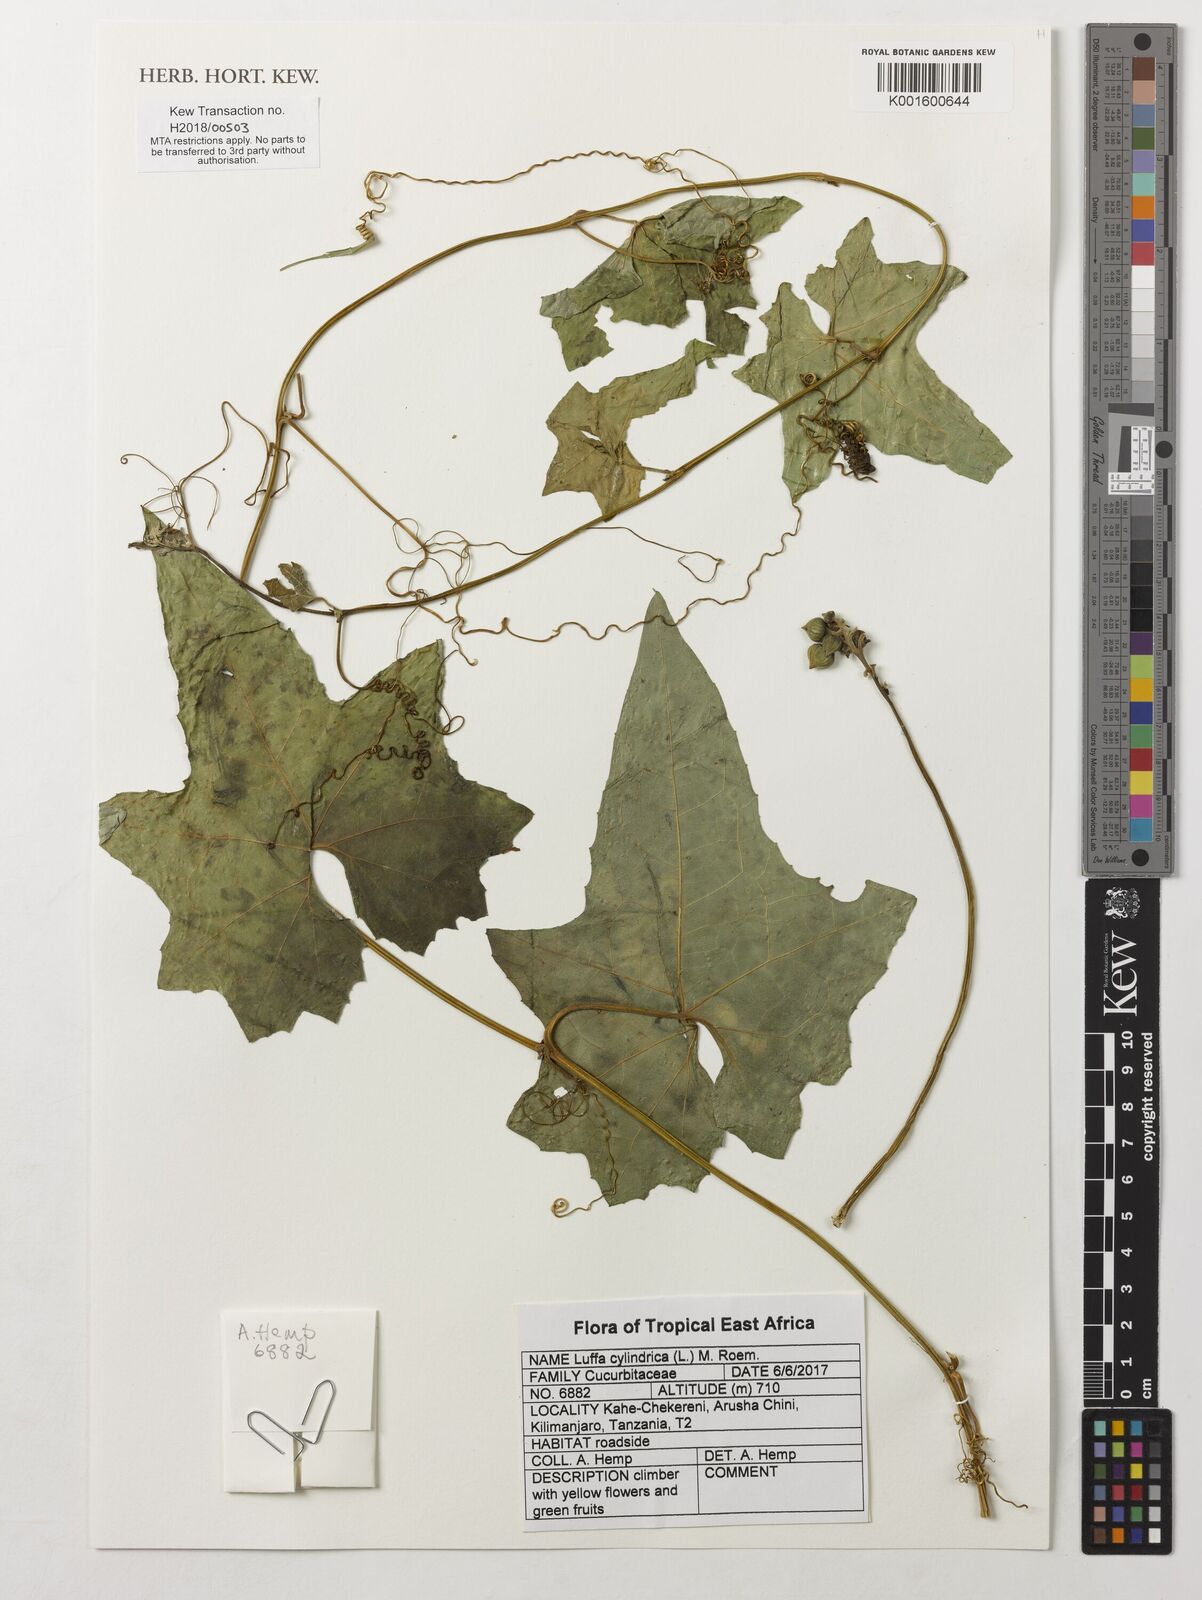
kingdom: Plantae
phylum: Tracheophyta
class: Magnoliopsida
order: Cucurbitales
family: Cucurbitaceae
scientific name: Cucurbitaceae
